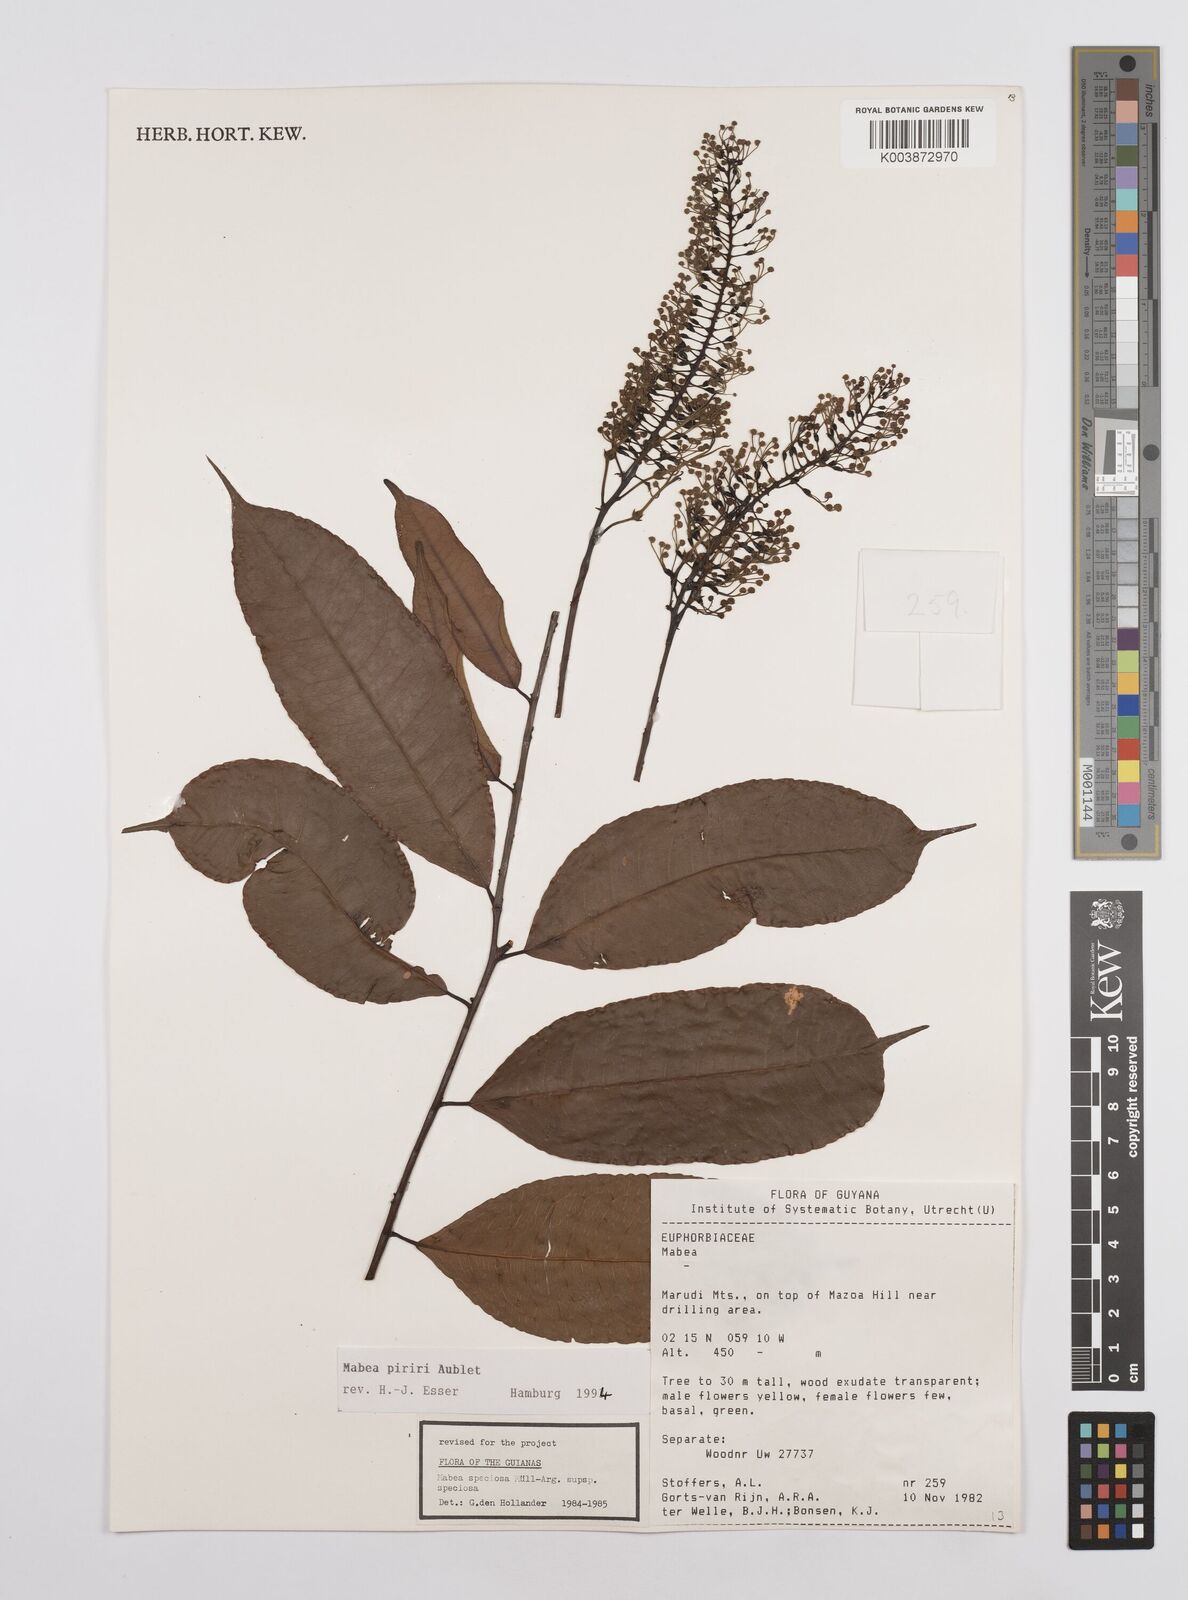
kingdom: Plantae
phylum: Tracheophyta
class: Magnoliopsida
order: Malpighiales
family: Euphorbiaceae
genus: Mabea
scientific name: Mabea piriri
